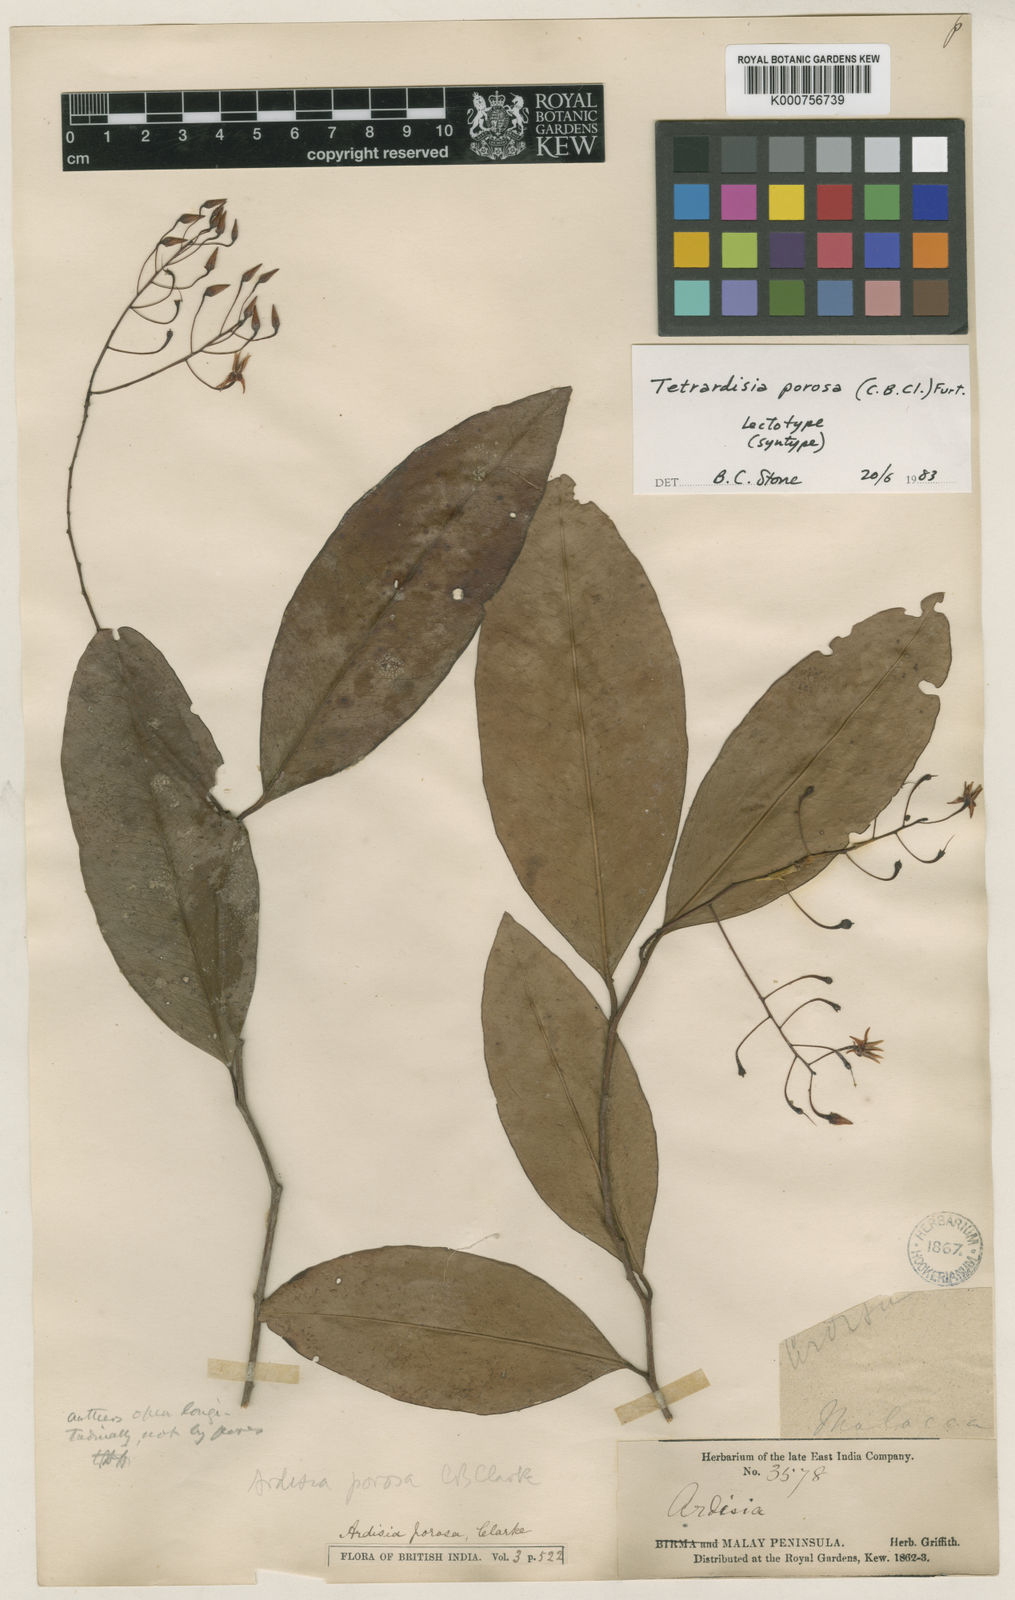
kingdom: Plantae
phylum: Tracheophyta
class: Magnoliopsida
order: Ericales
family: Primulaceae
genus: Ardisia
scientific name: Ardisia porosa
